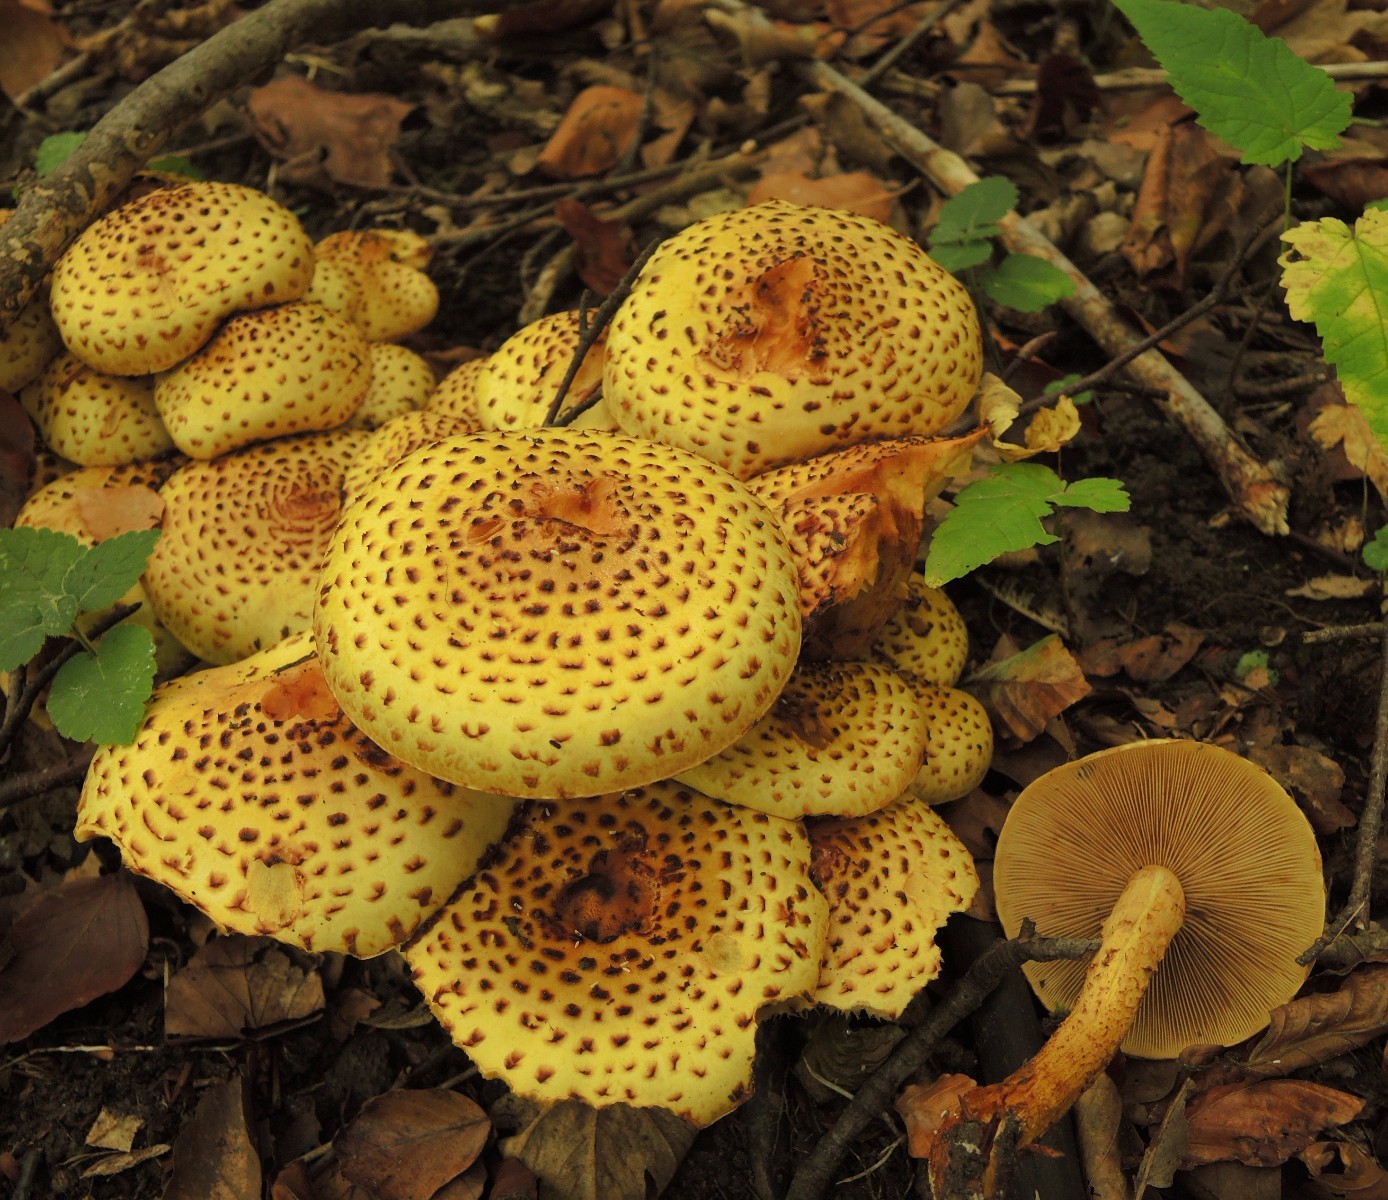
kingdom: Fungi
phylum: Basidiomycota
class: Agaricomycetes
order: Agaricales
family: Strophariaceae
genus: Pholiota
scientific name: Pholiota jahnii
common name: slimet skælhat
